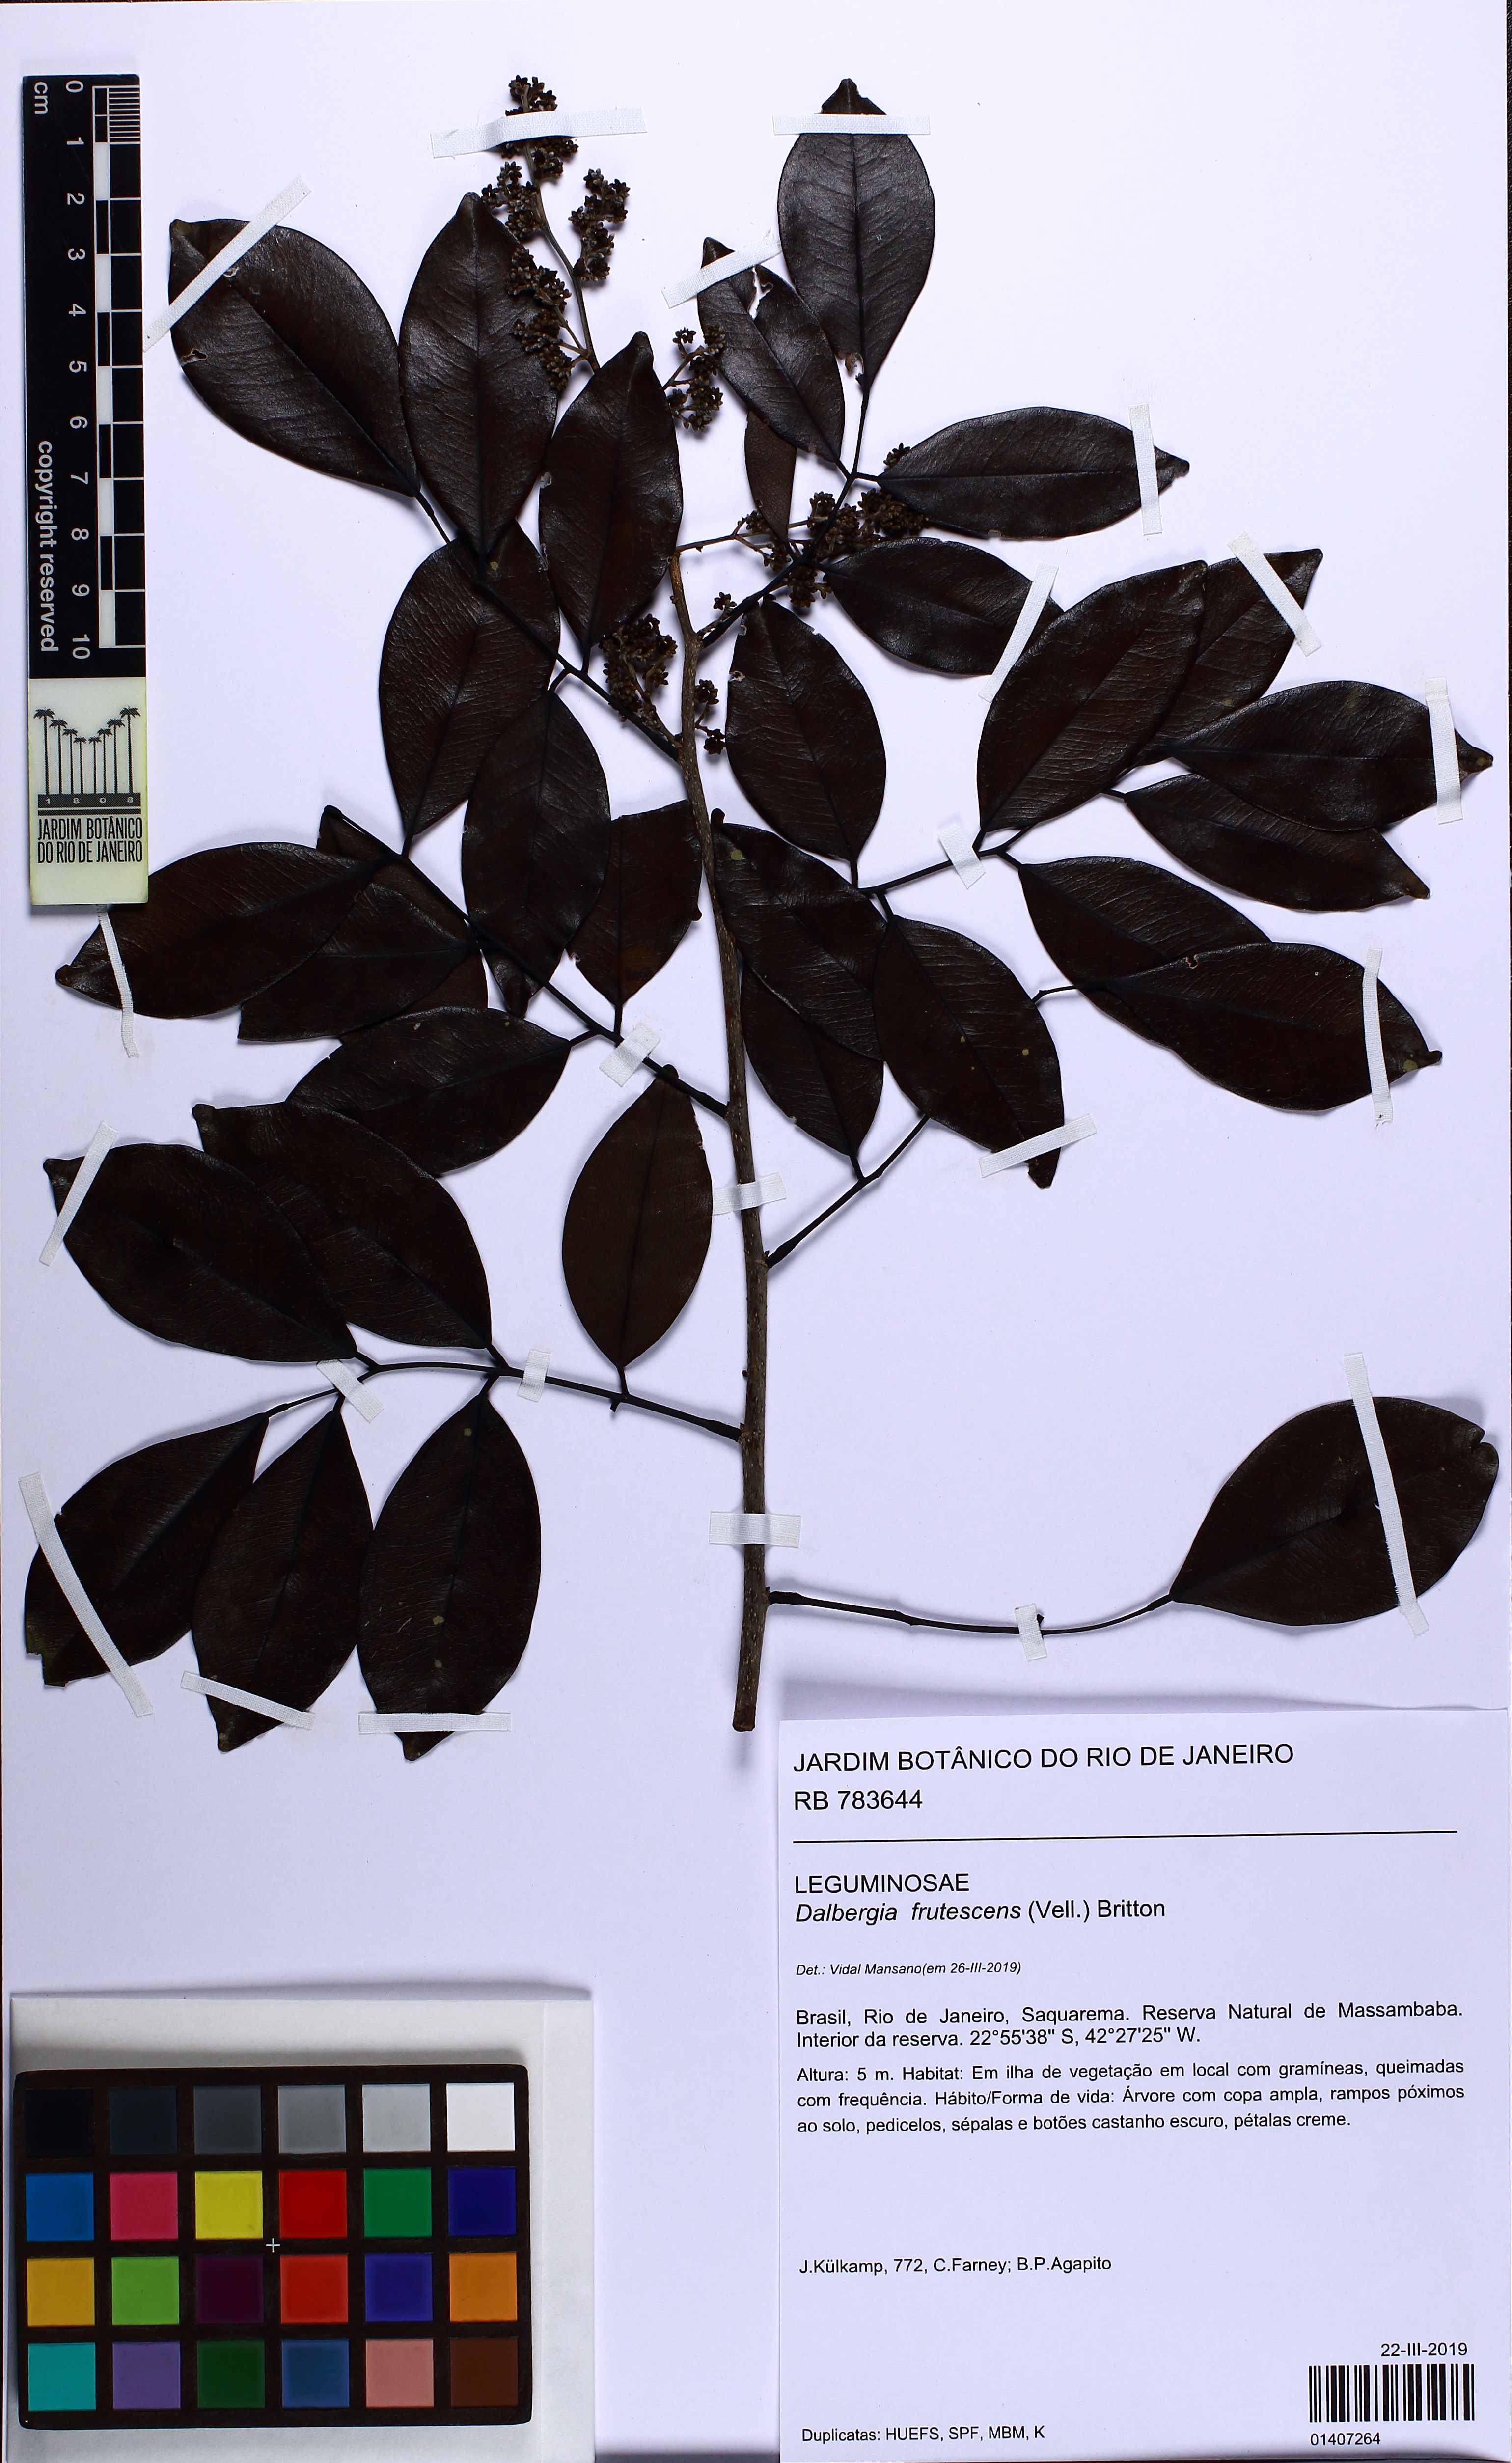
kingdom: Plantae
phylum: Tracheophyta
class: Magnoliopsida
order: Fabales
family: Fabaceae
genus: Dalbergia
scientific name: Dalbergia frutescens
